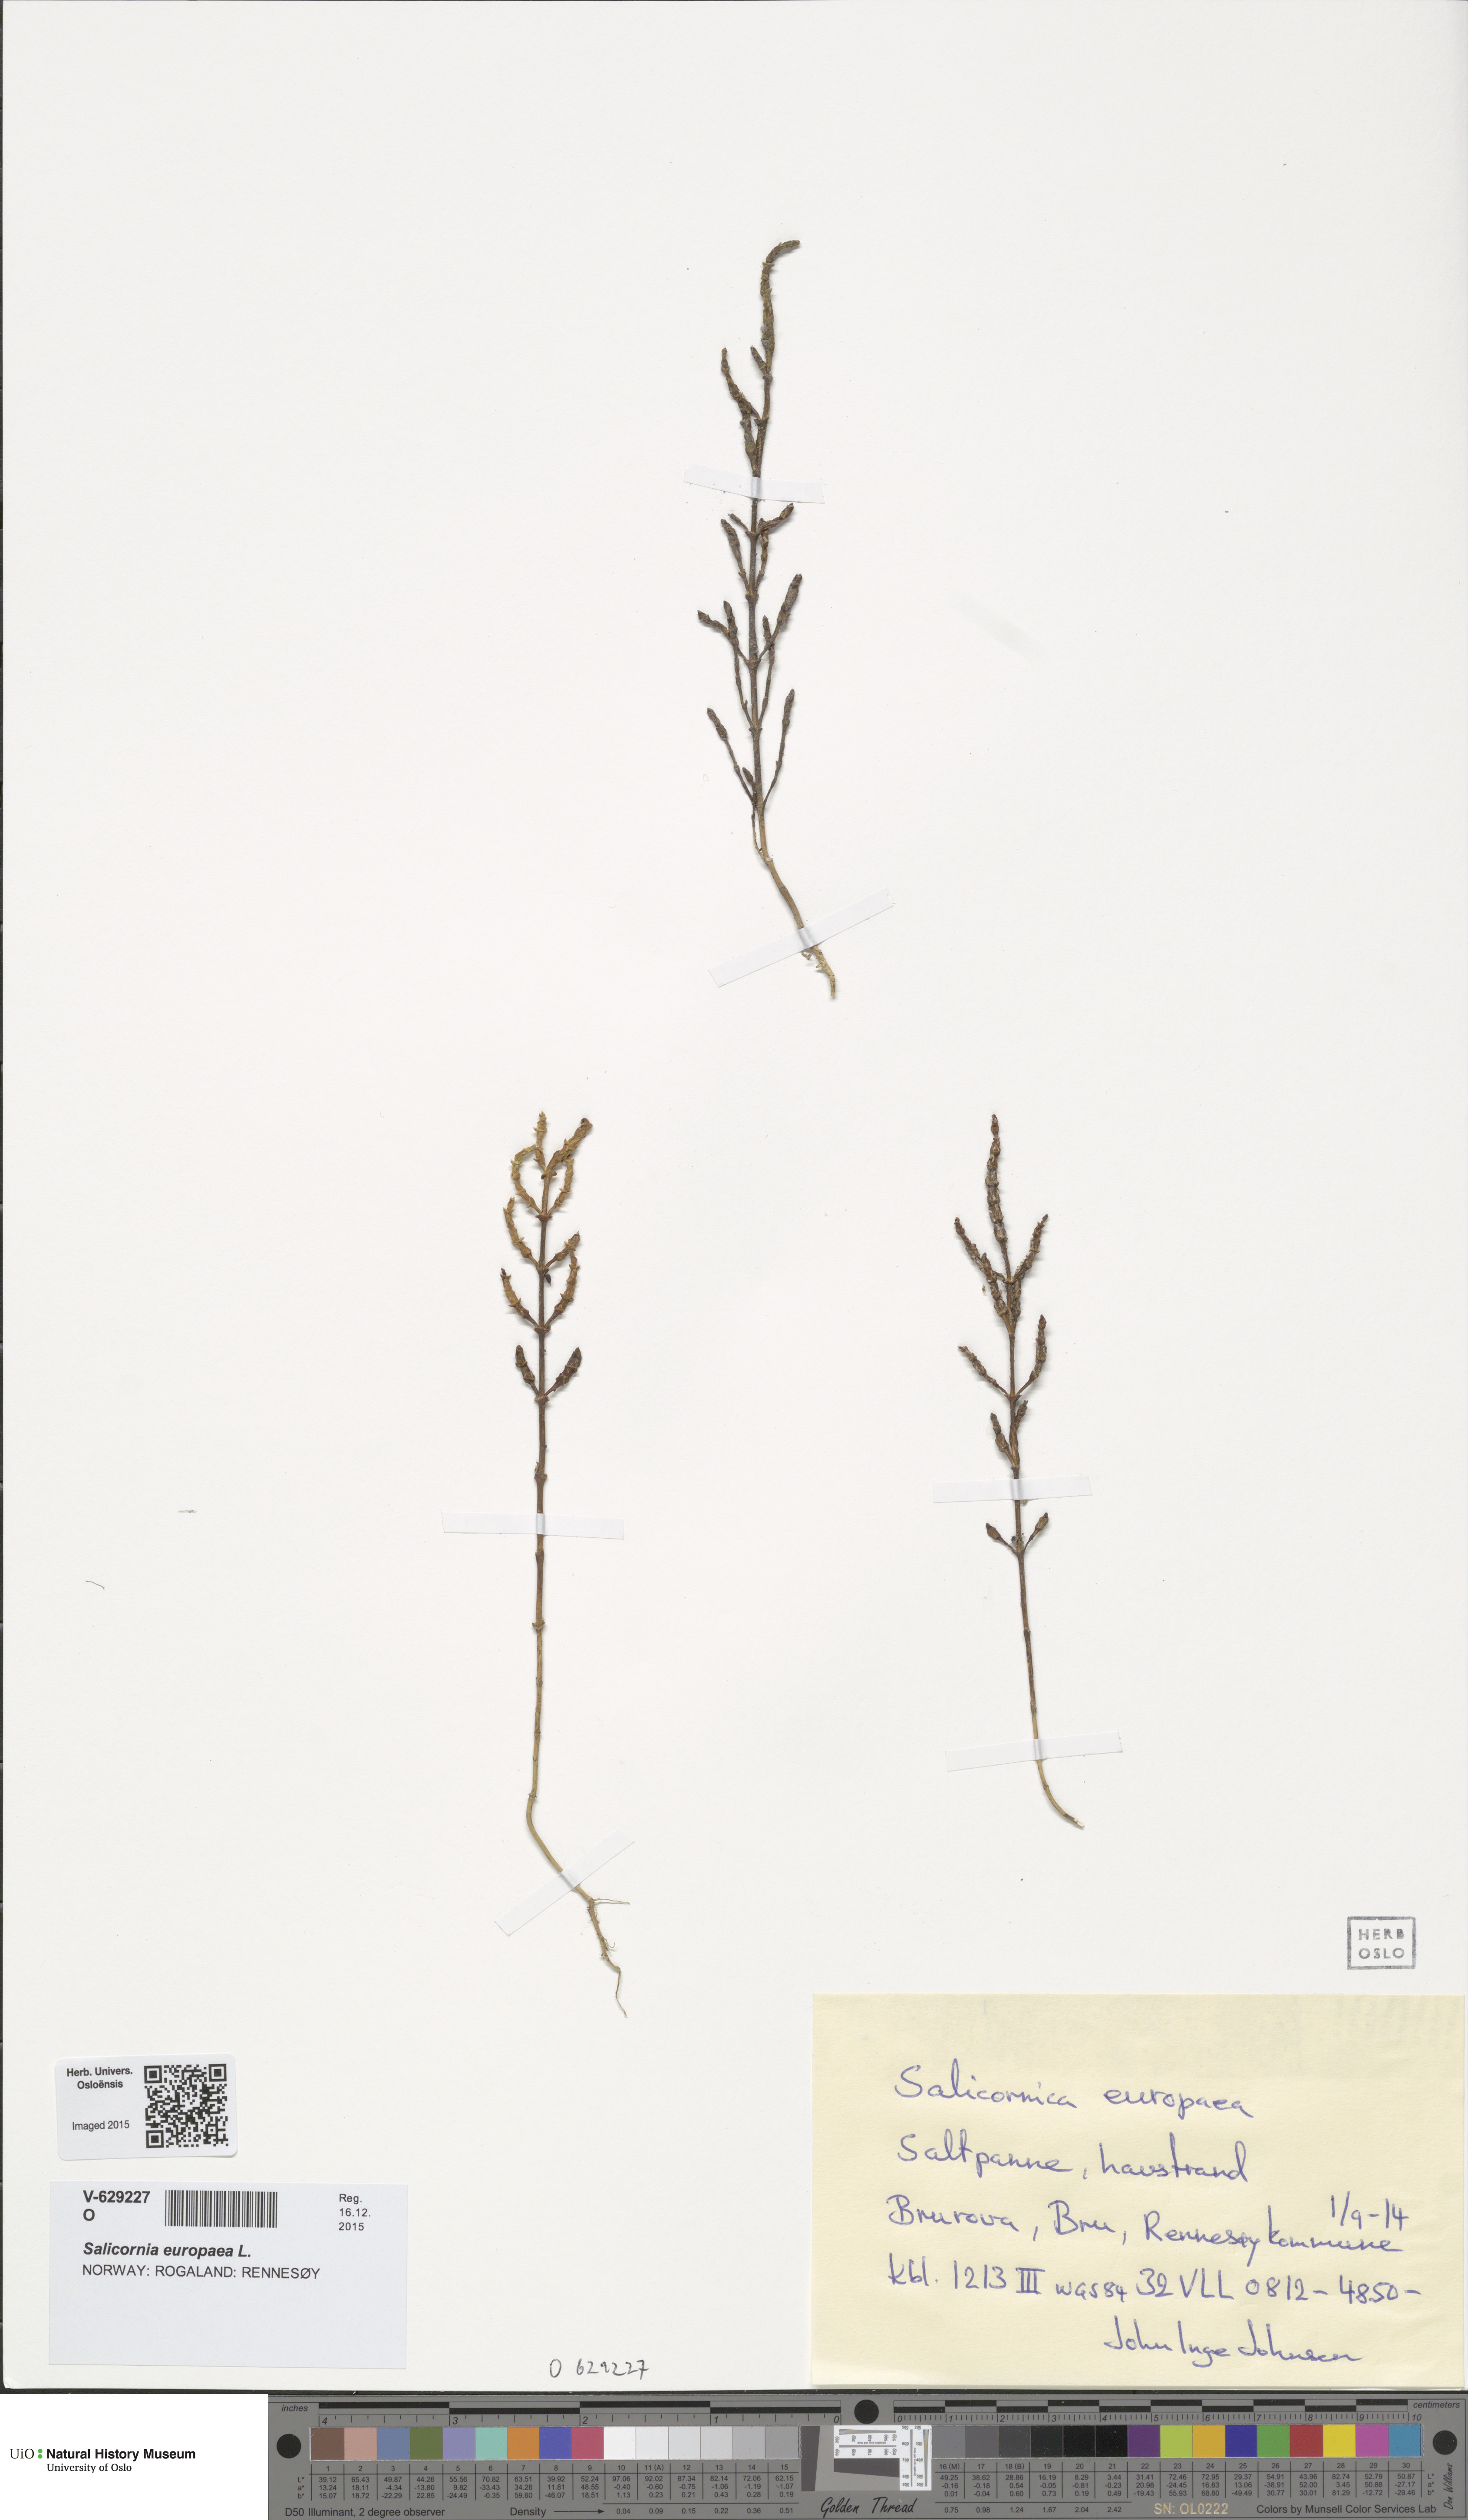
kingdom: Plantae
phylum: Tracheophyta
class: Magnoliopsida
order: Caryophyllales
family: Amaranthaceae
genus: Salicornia
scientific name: Salicornia europaea
